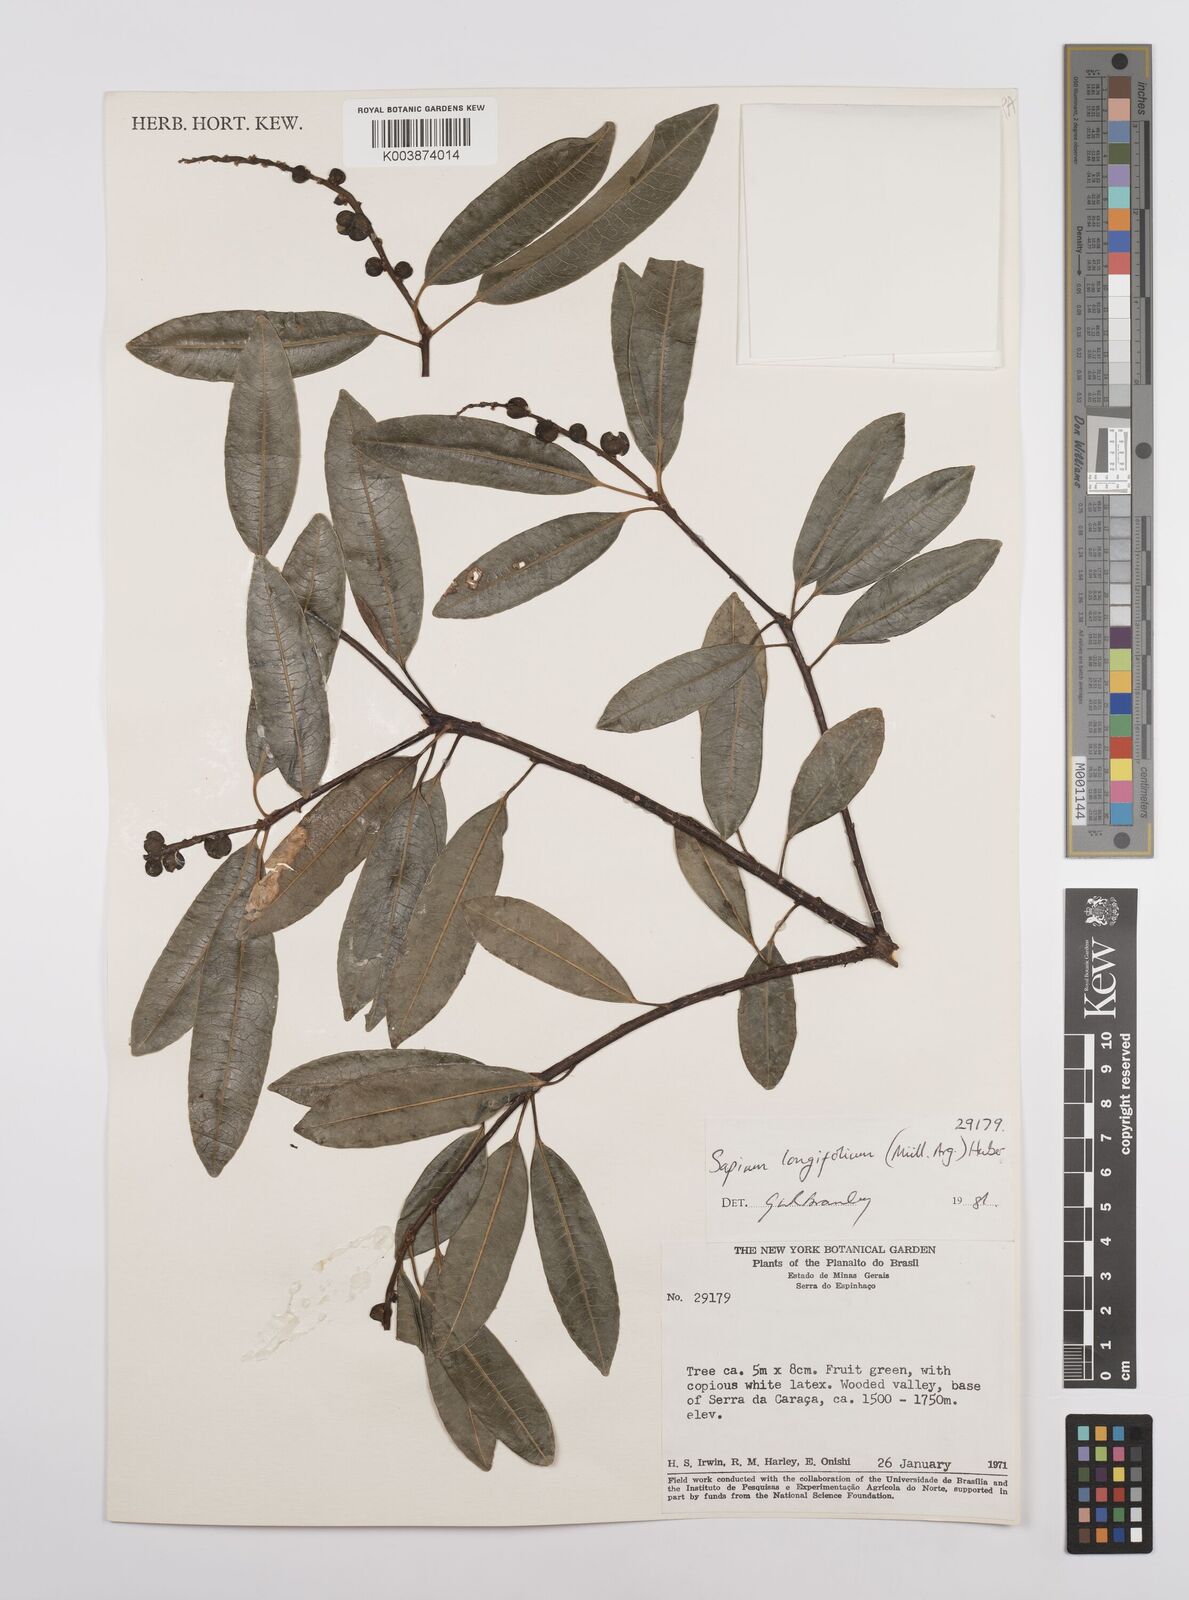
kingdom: Plantae
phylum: Tracheophyta
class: Magnoliopsida
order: Malpighiales
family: Euphorbiaceae
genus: Sapium
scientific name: Sapium haematospermum
